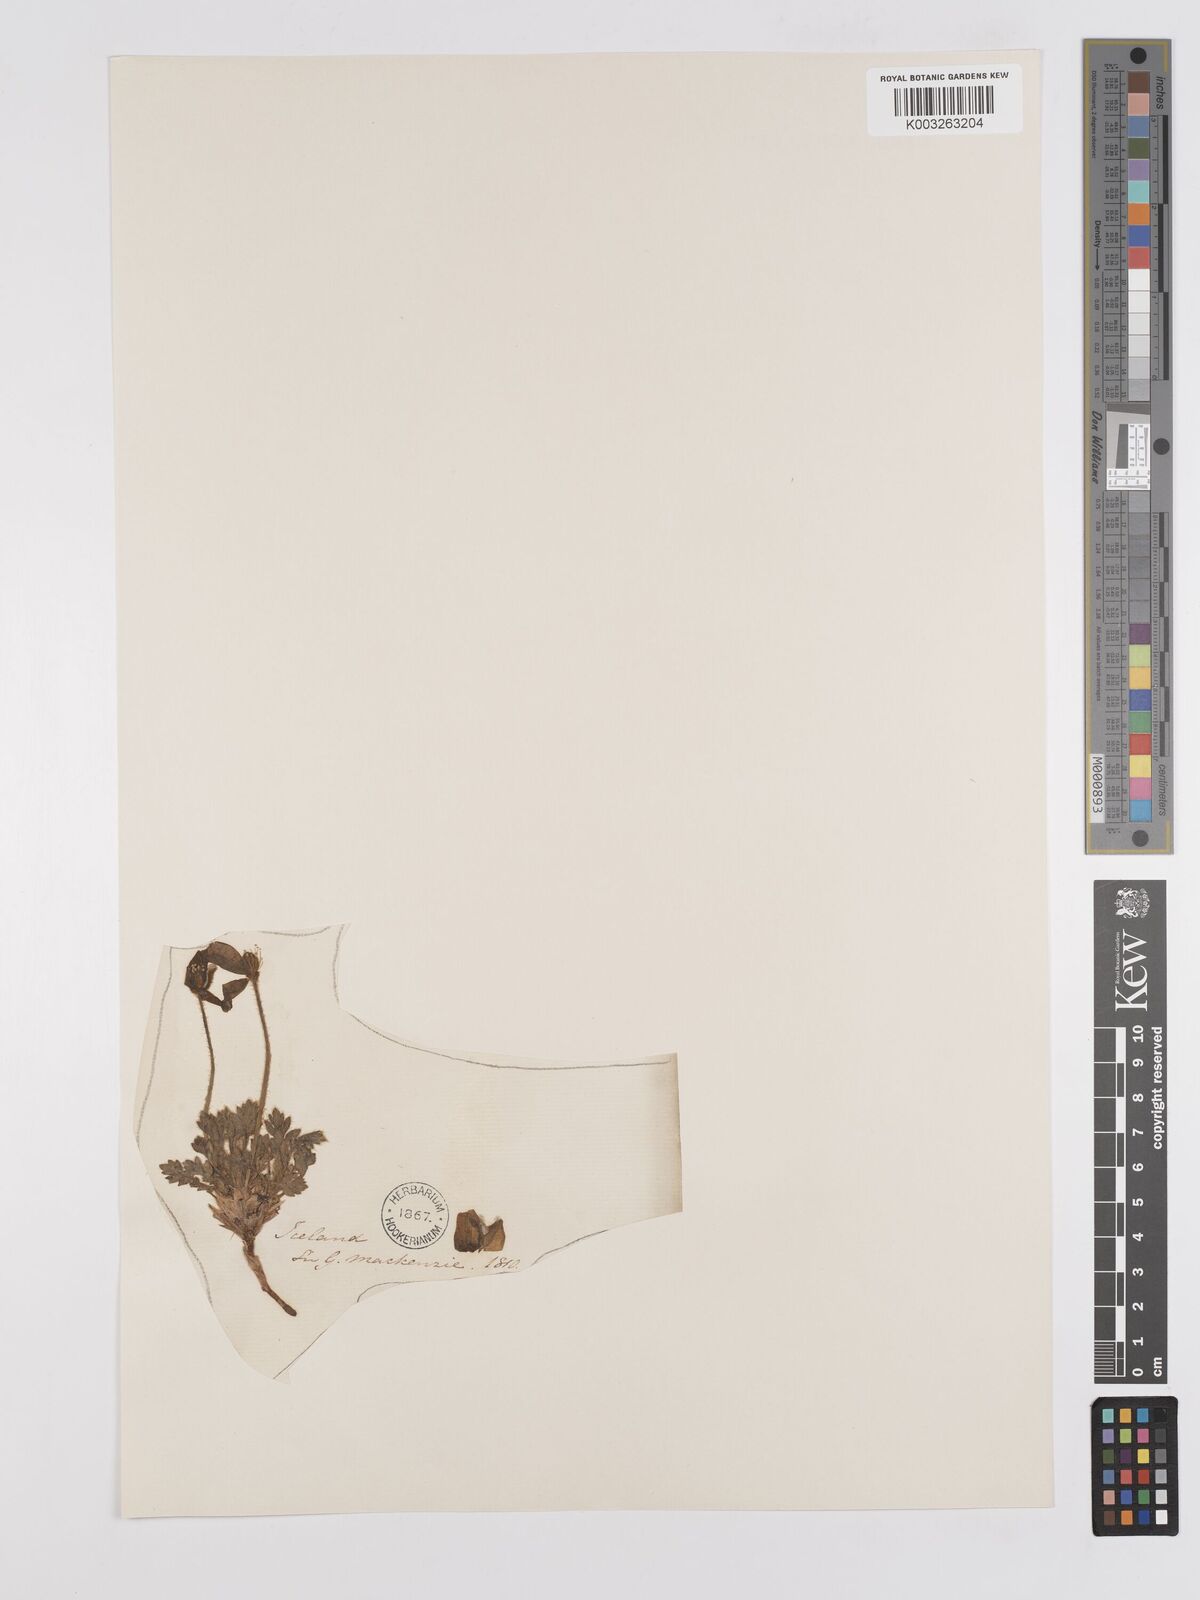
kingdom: Plantae
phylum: Tracheophyta
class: Magnoliopsida
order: Ranunculales
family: Papaveraceae
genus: Papaver
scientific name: Papaver radicatum
